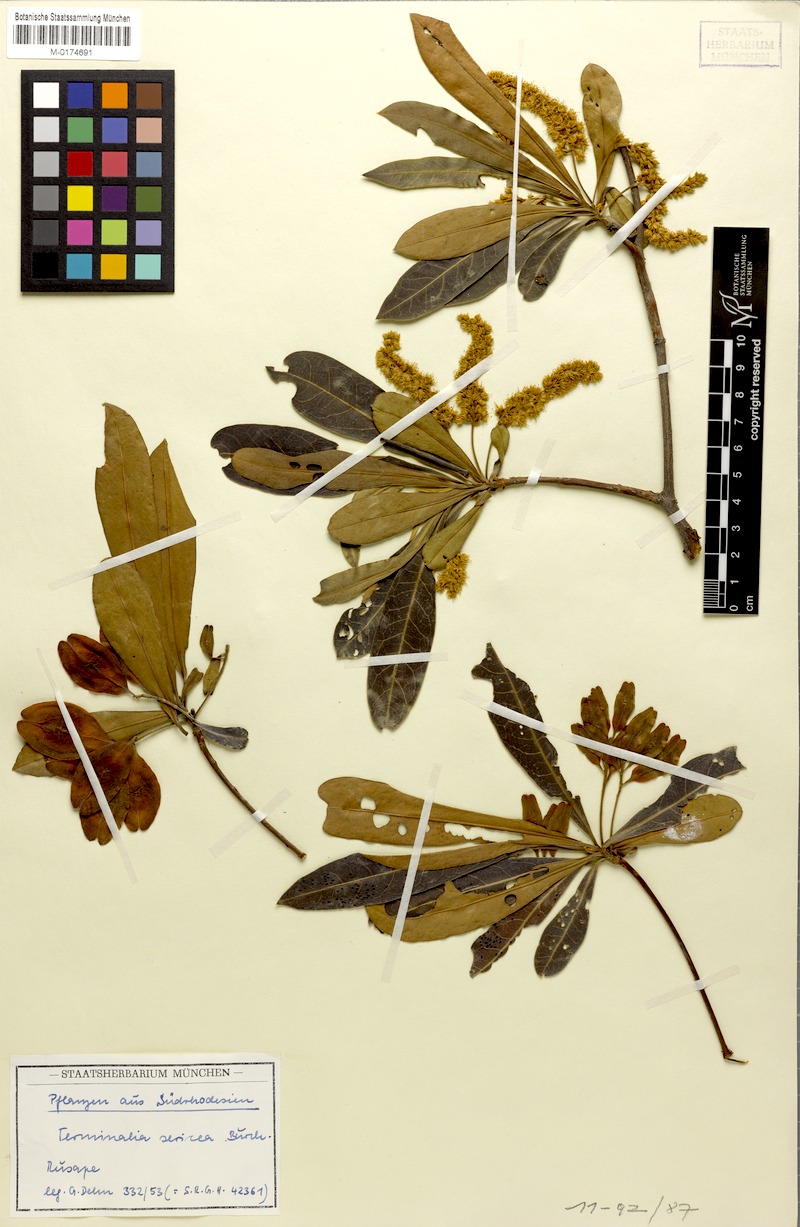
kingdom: Plantae
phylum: Tracheophyta
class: Magnoliopsida
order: Myrtales
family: Combretaceae
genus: Terminalia
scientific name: Terminalia sericea
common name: Clusterleaf
